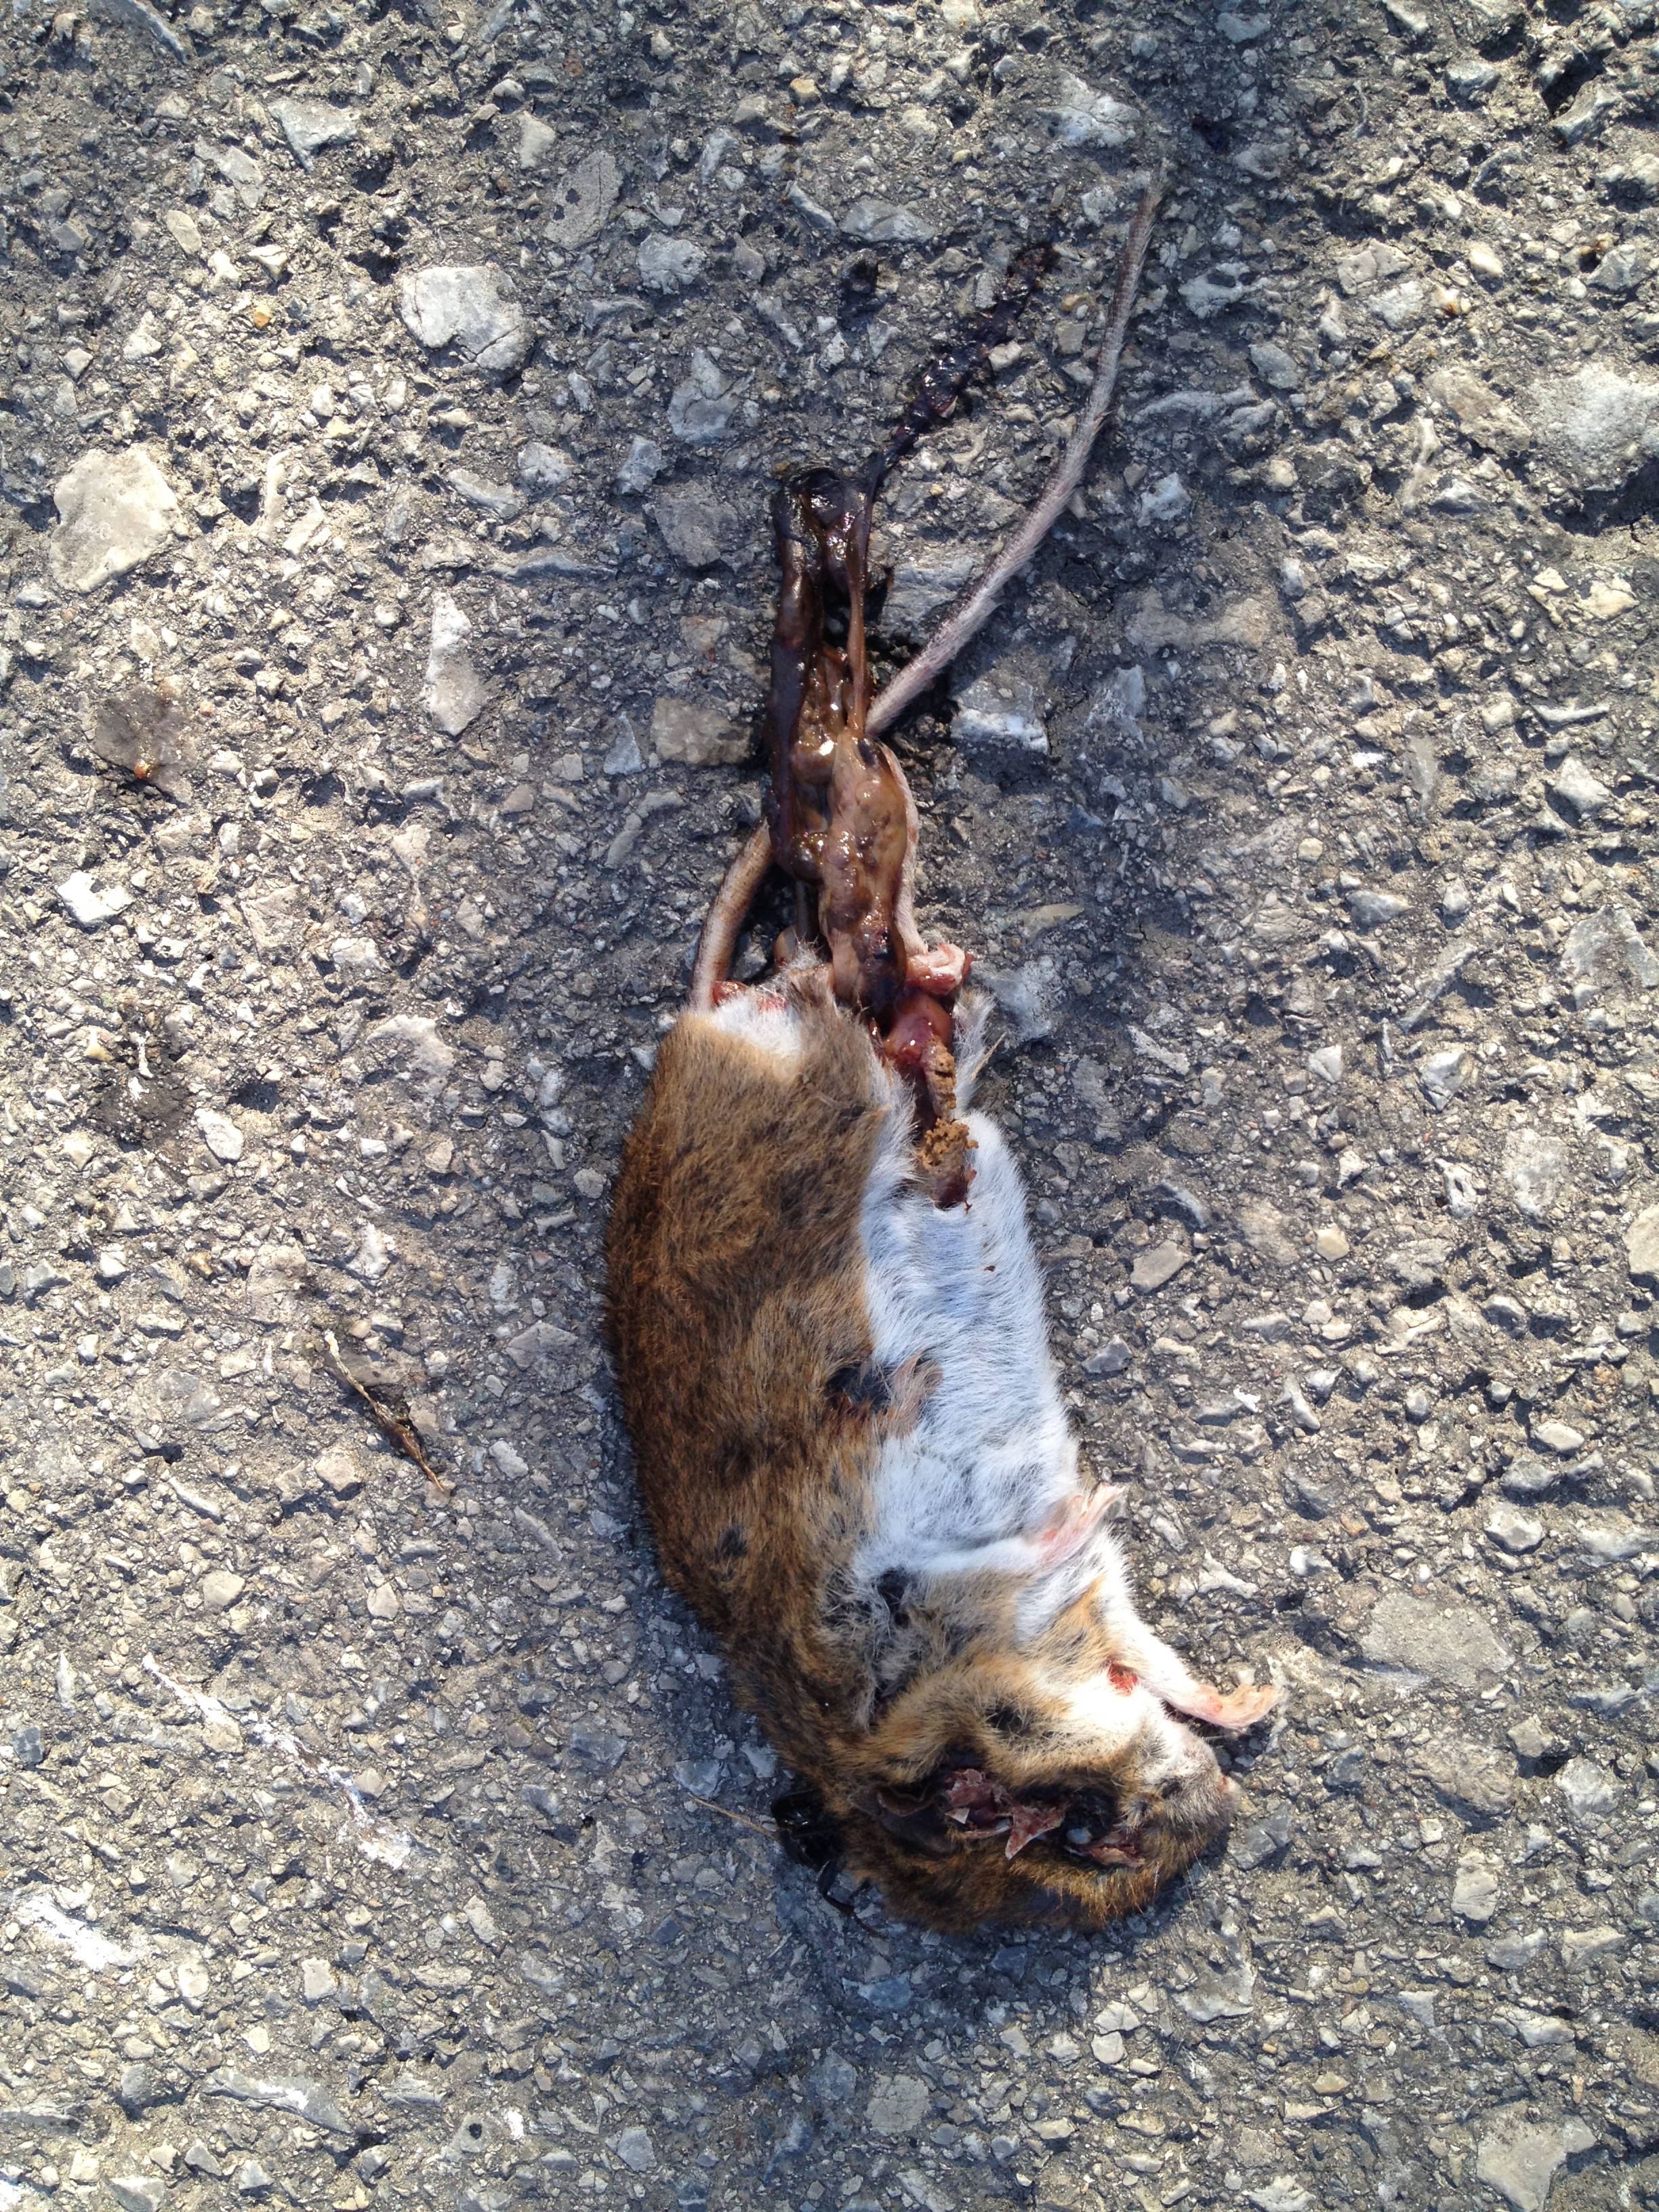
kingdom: Animalia
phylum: Chordata
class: Mammalia
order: Rodentia
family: Muridae
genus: Apodemus
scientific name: Apodemus
